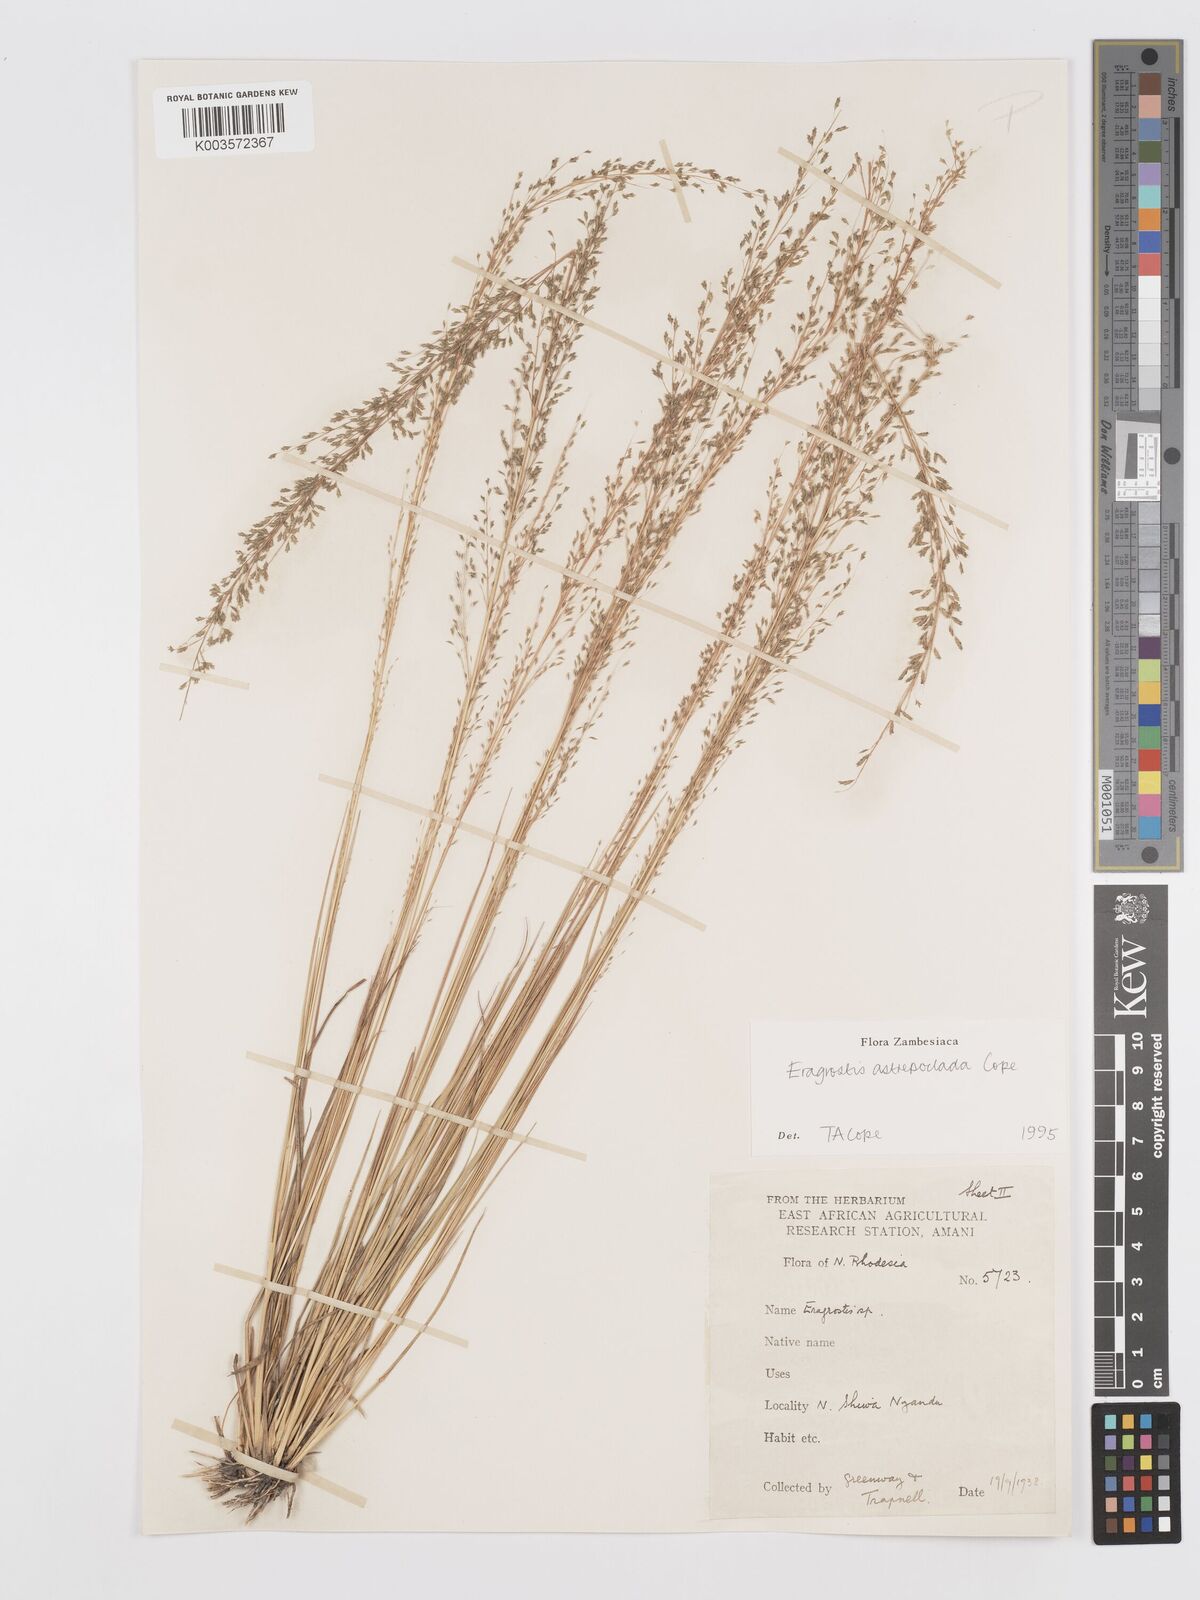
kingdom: Plantae
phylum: Tracheophyta
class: Liliopsida
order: Poales
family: Poaceae
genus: Eragrostis
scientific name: Eragrostis astreptoclada
